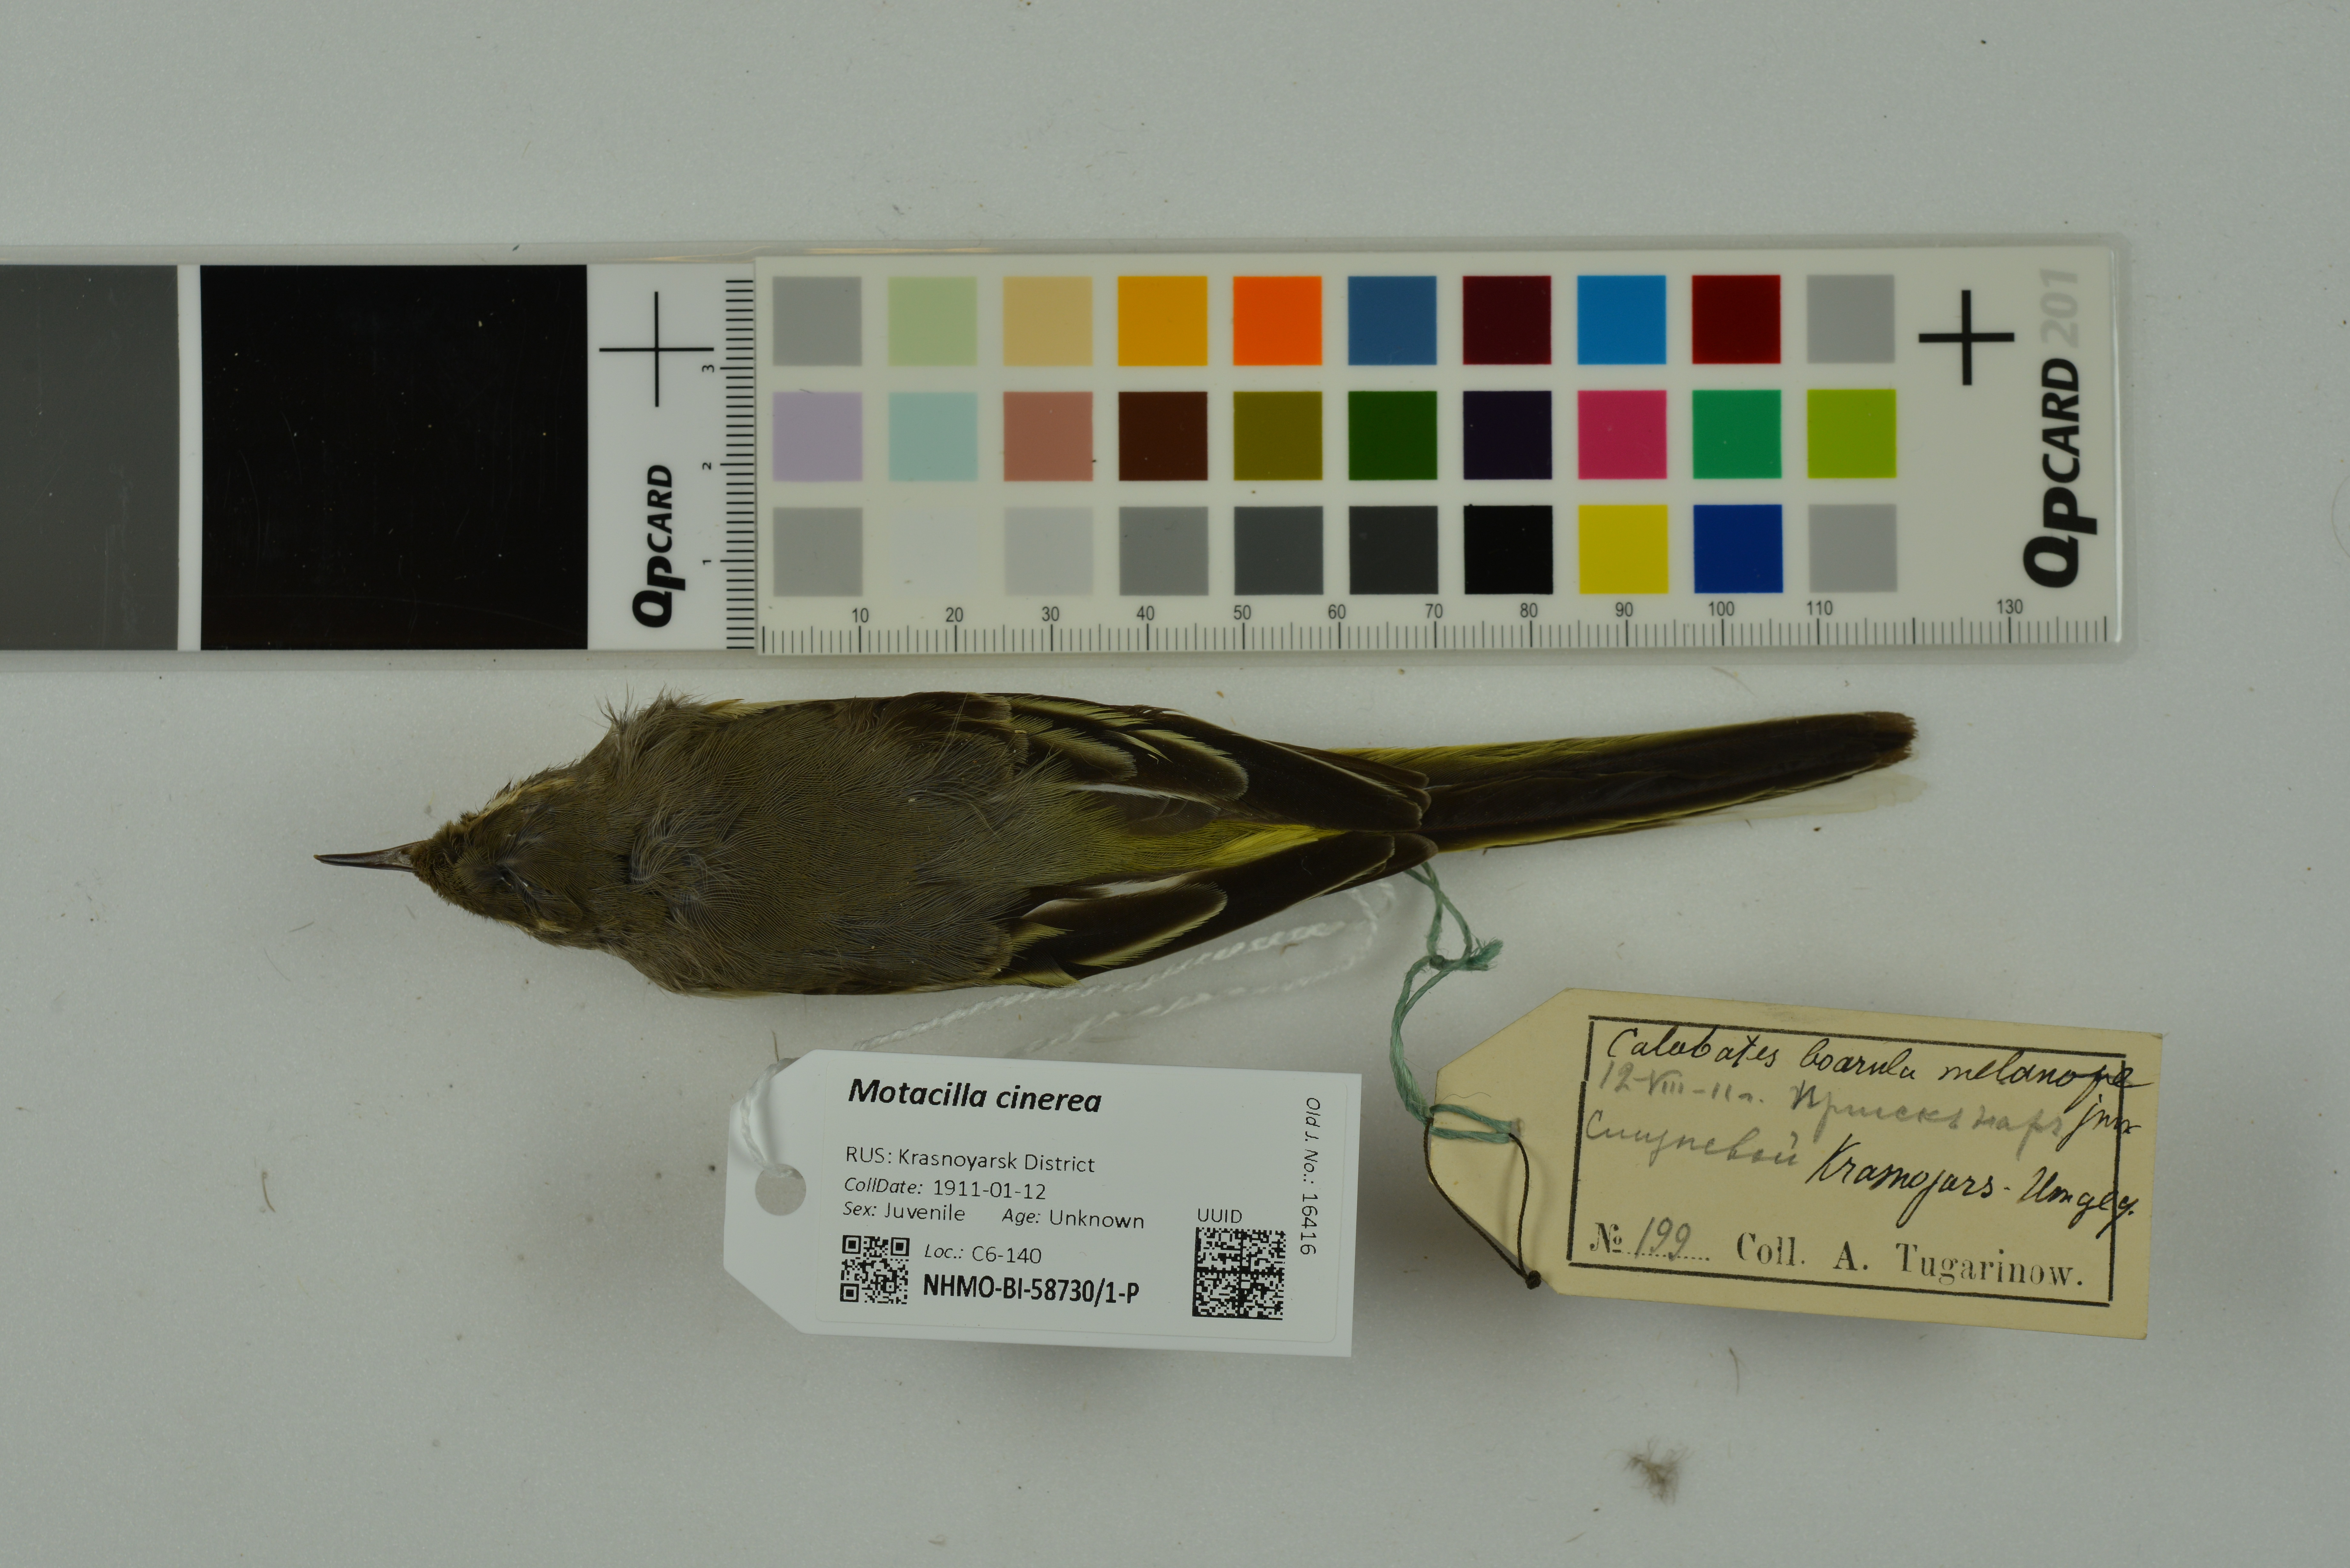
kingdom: Animalia
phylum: Chordata
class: Aves
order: Passeriformes
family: Motacillidae
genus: Motacilla
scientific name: Motacilla cinerea
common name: Grey wagtail
